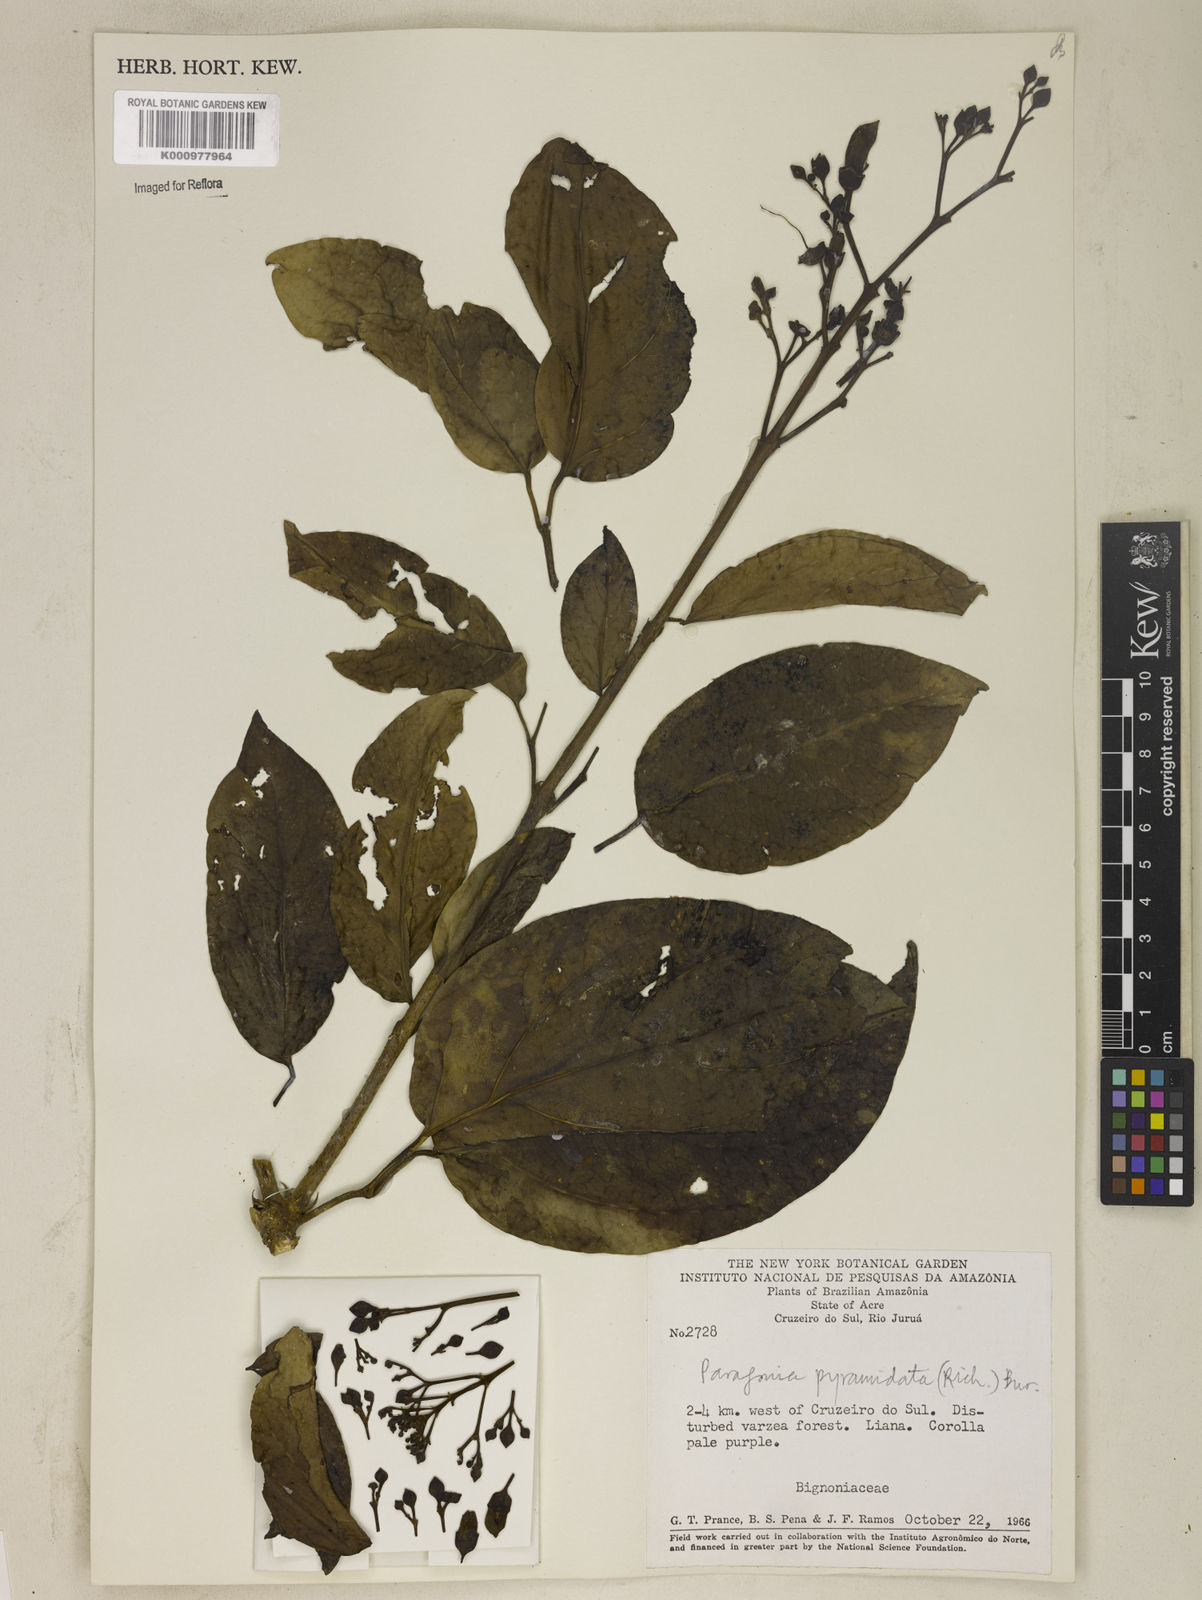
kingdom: Plantae
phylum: Tracheophyta
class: Magnoliopsida
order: Lamiales
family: Bignoniaceae
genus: Tanaecium
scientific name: Tanaecium pyramidatum
